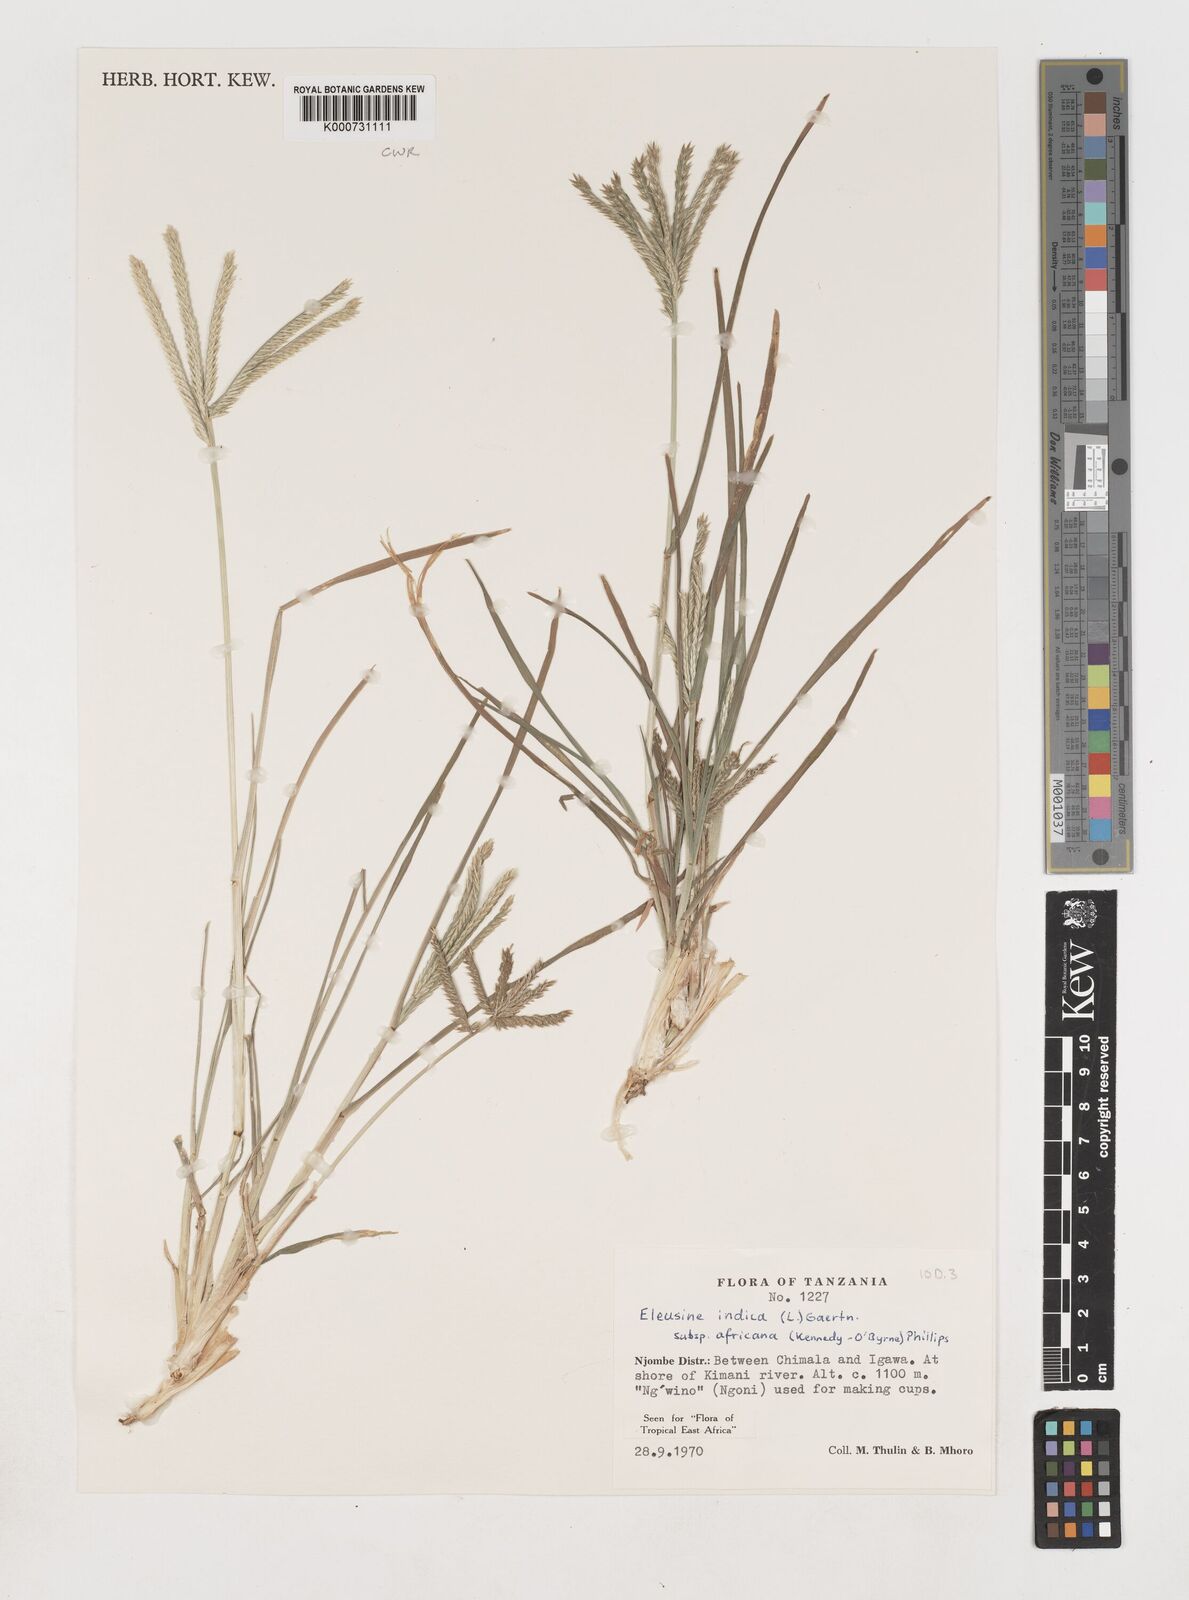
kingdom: Plantae
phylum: Tracheophyta
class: Liliopsida
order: Poales
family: Poaceae
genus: Eleusine
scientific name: Eleusine africana
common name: Wild african finger millet
